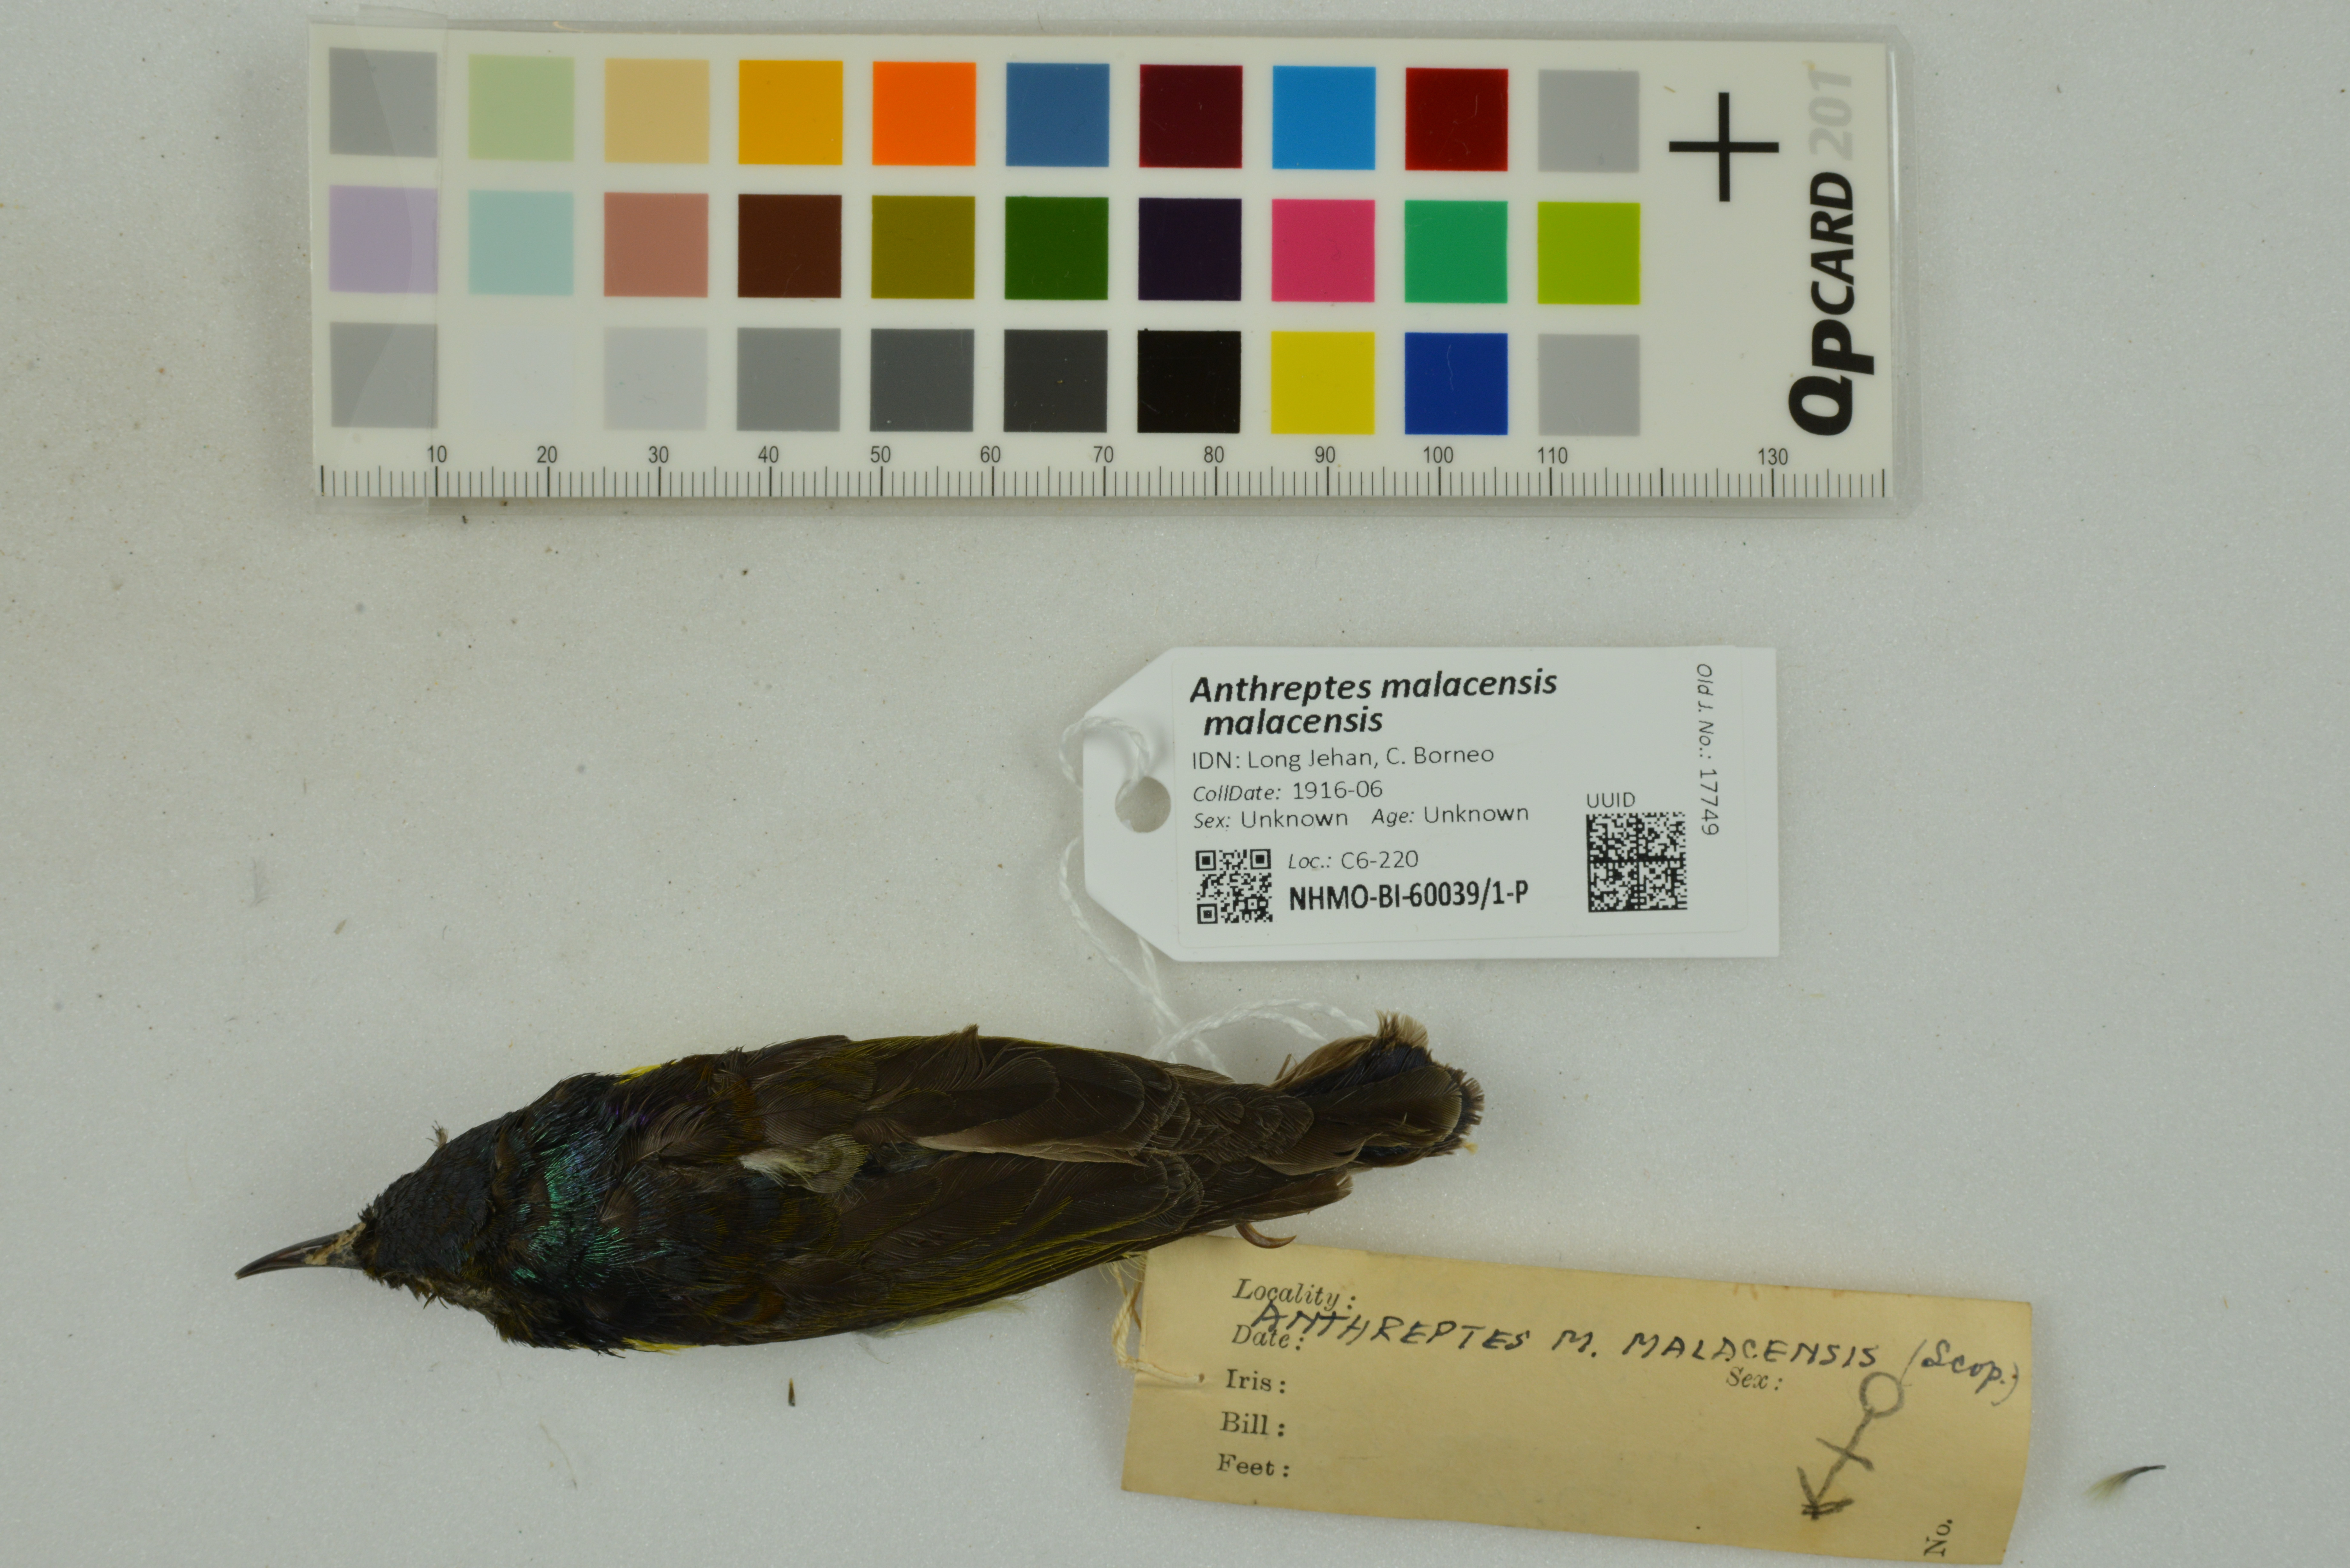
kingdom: Animalia
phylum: Chordata
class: Aves
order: Passeriformes
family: Nectariniidae
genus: Anthreptes
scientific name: Anthreptes malacensis
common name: Brown-throated sunbird
